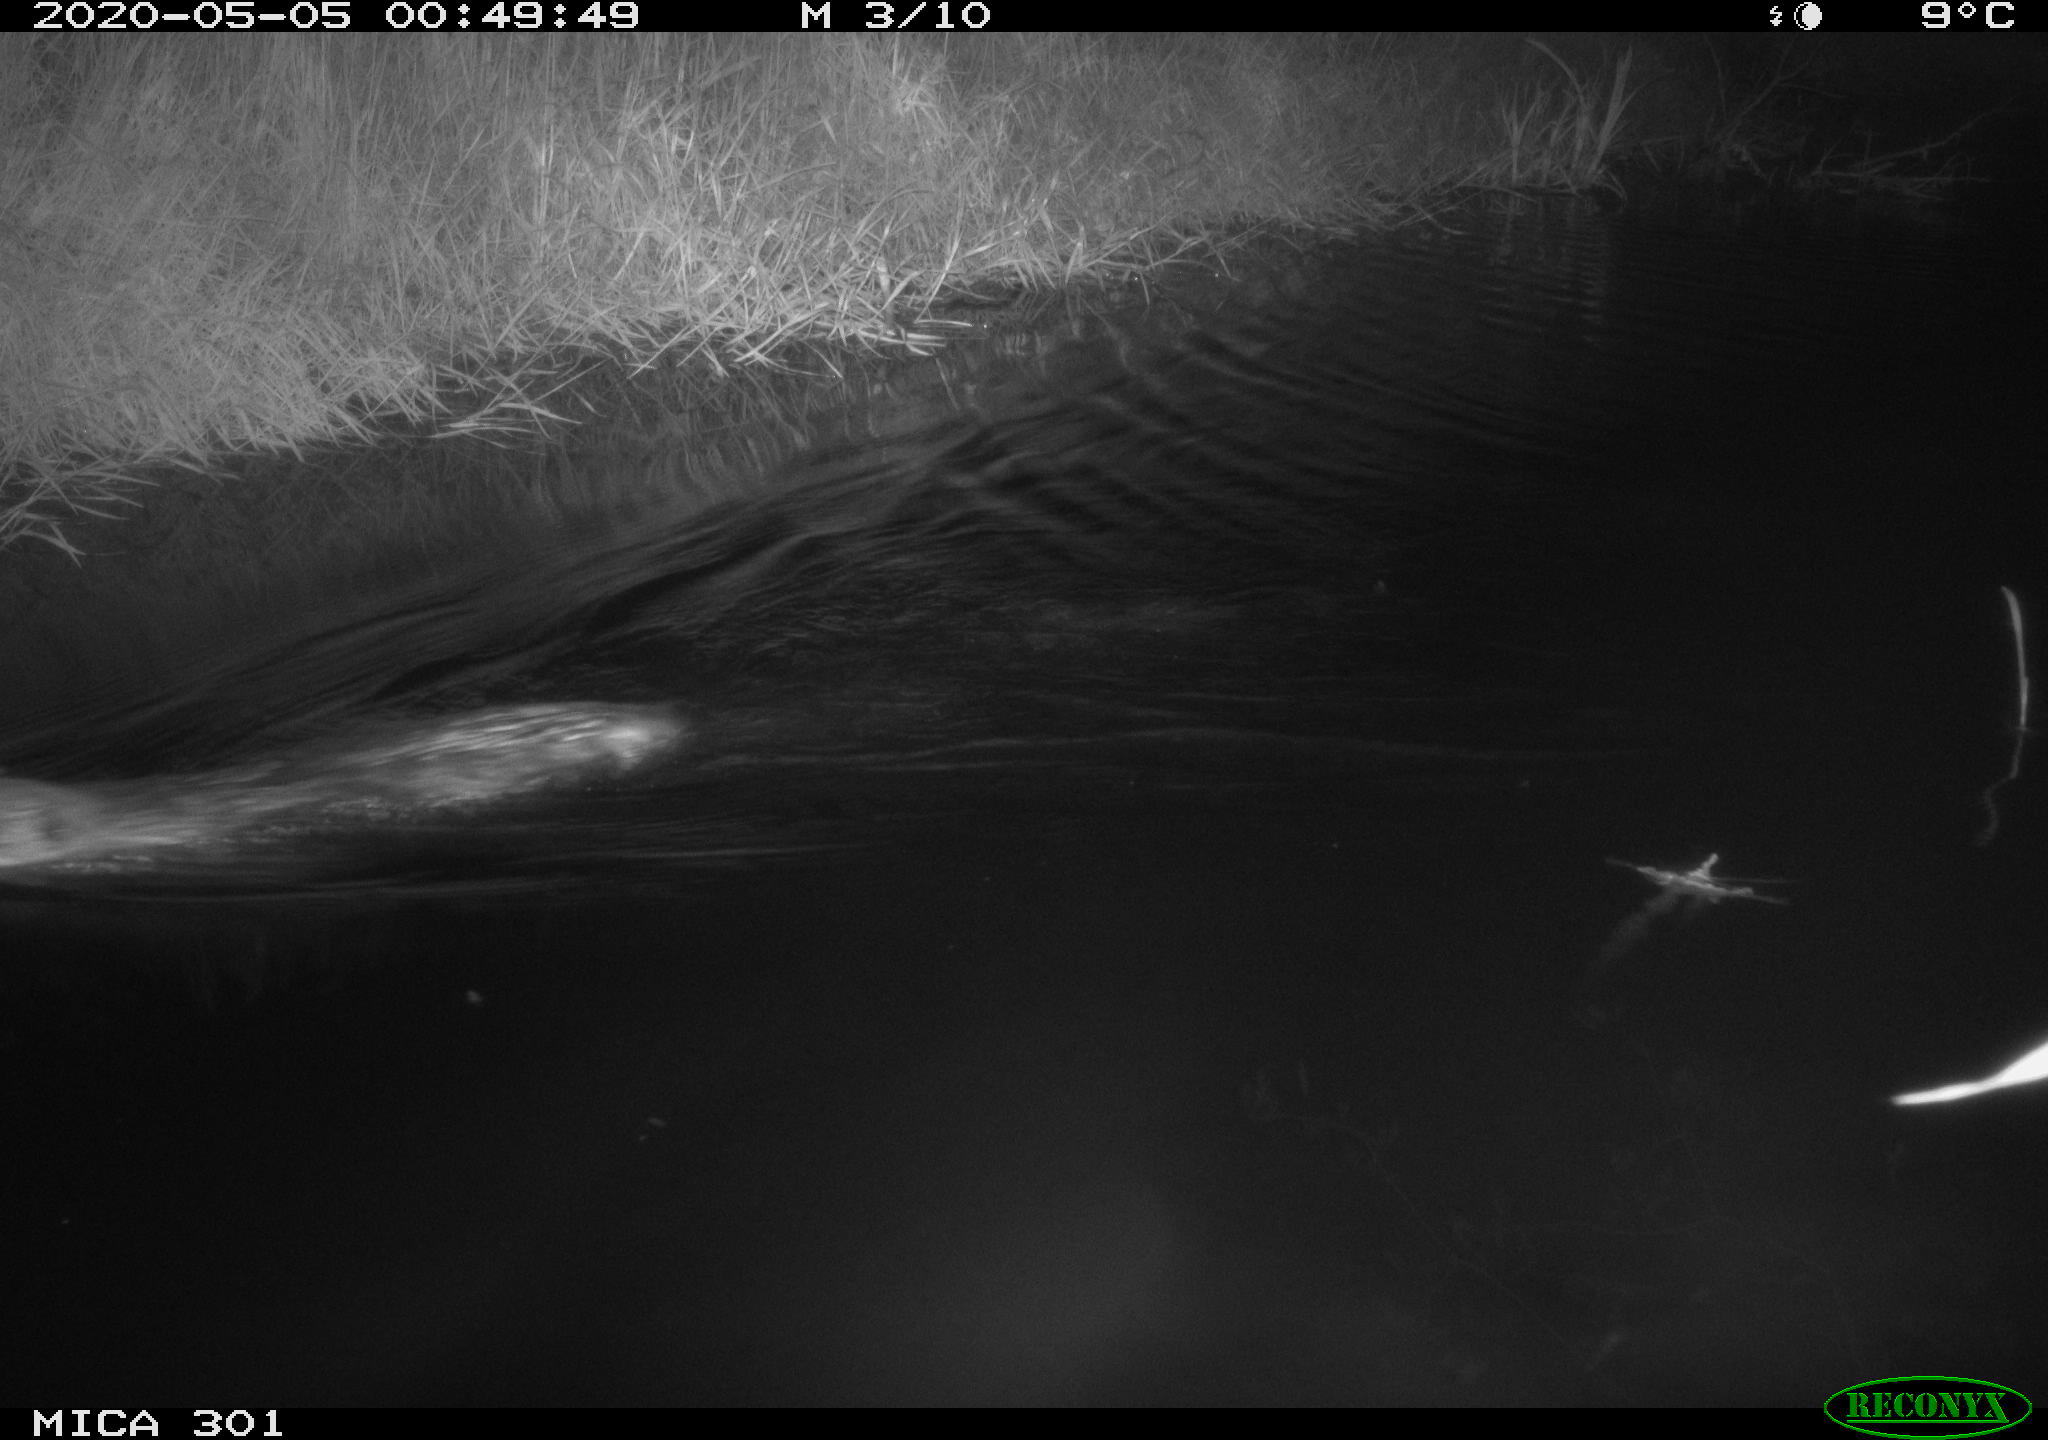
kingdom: Animalia
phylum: Chordata
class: Mammalia
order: Rodentia
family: Castoridae
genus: Castor
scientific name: Castor fiber
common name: Eurasian beaver
